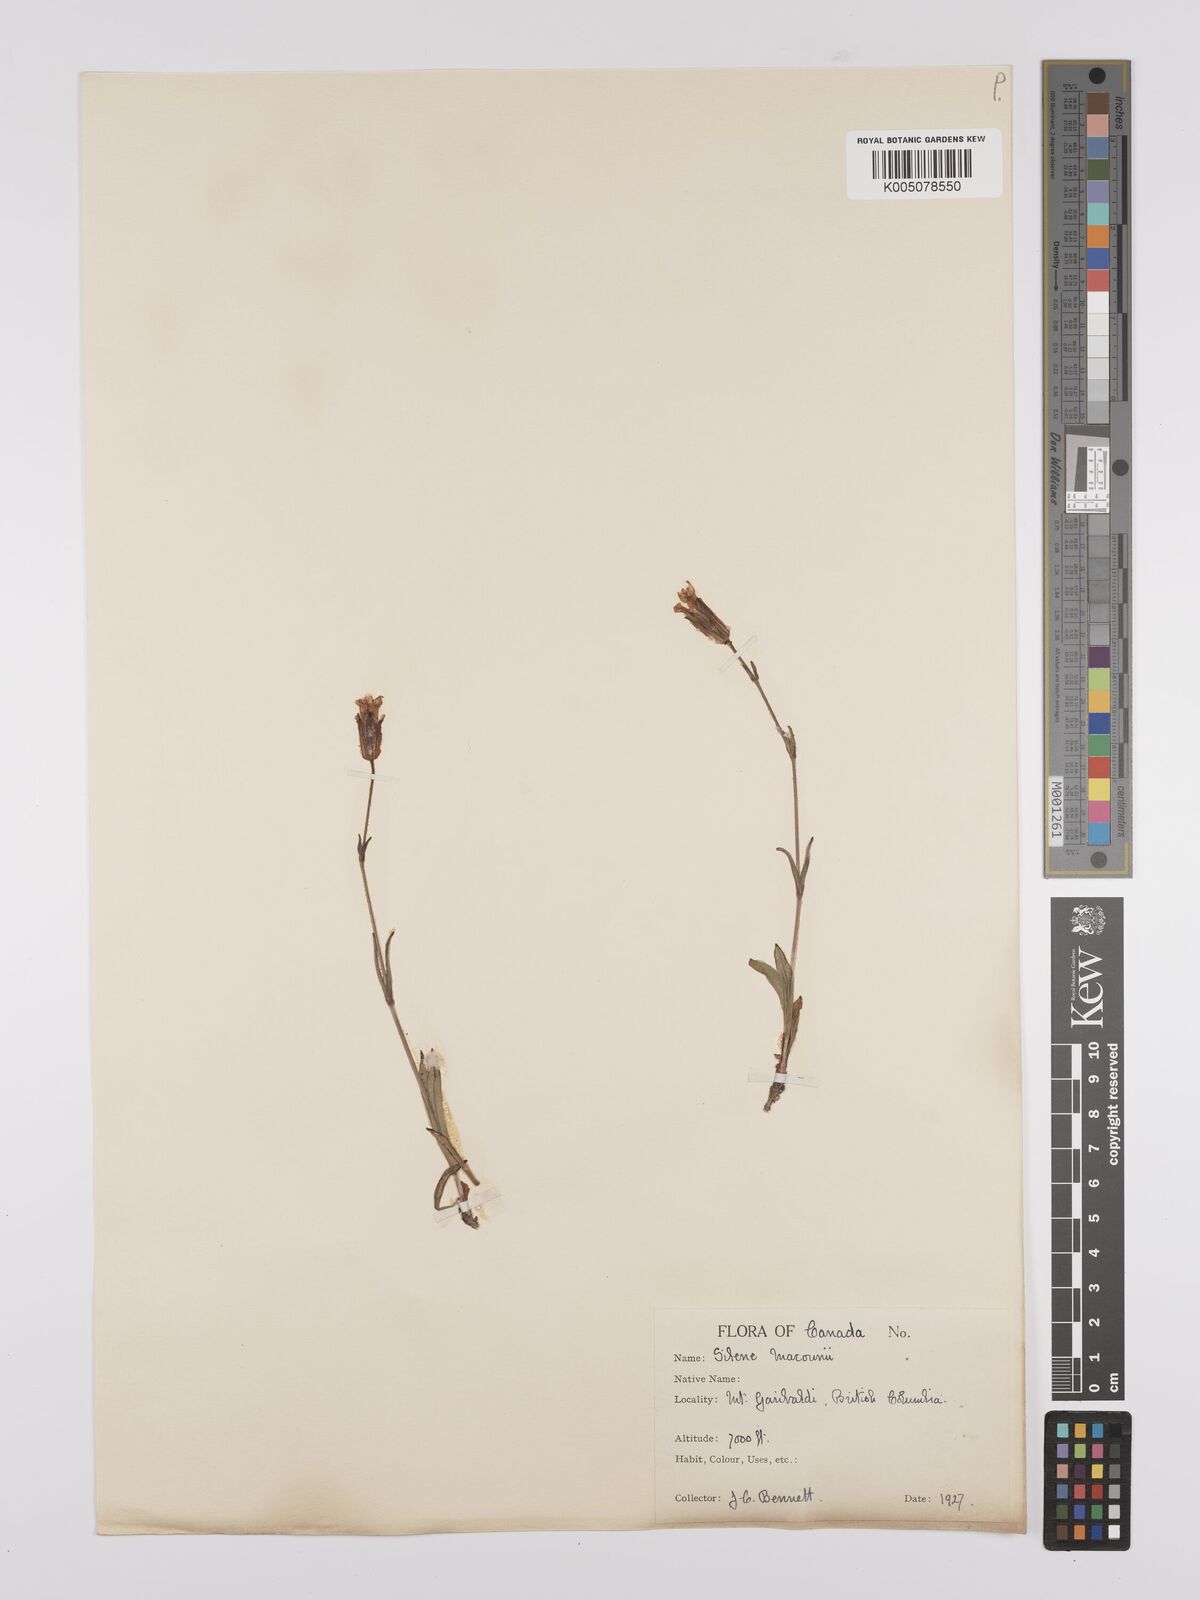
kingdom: Plantae
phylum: Tracheophyta
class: Magnoliopsida
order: Caryophyllales
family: Caryophyllaceae
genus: Silene
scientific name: Silene parryi
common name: Parry's campion
